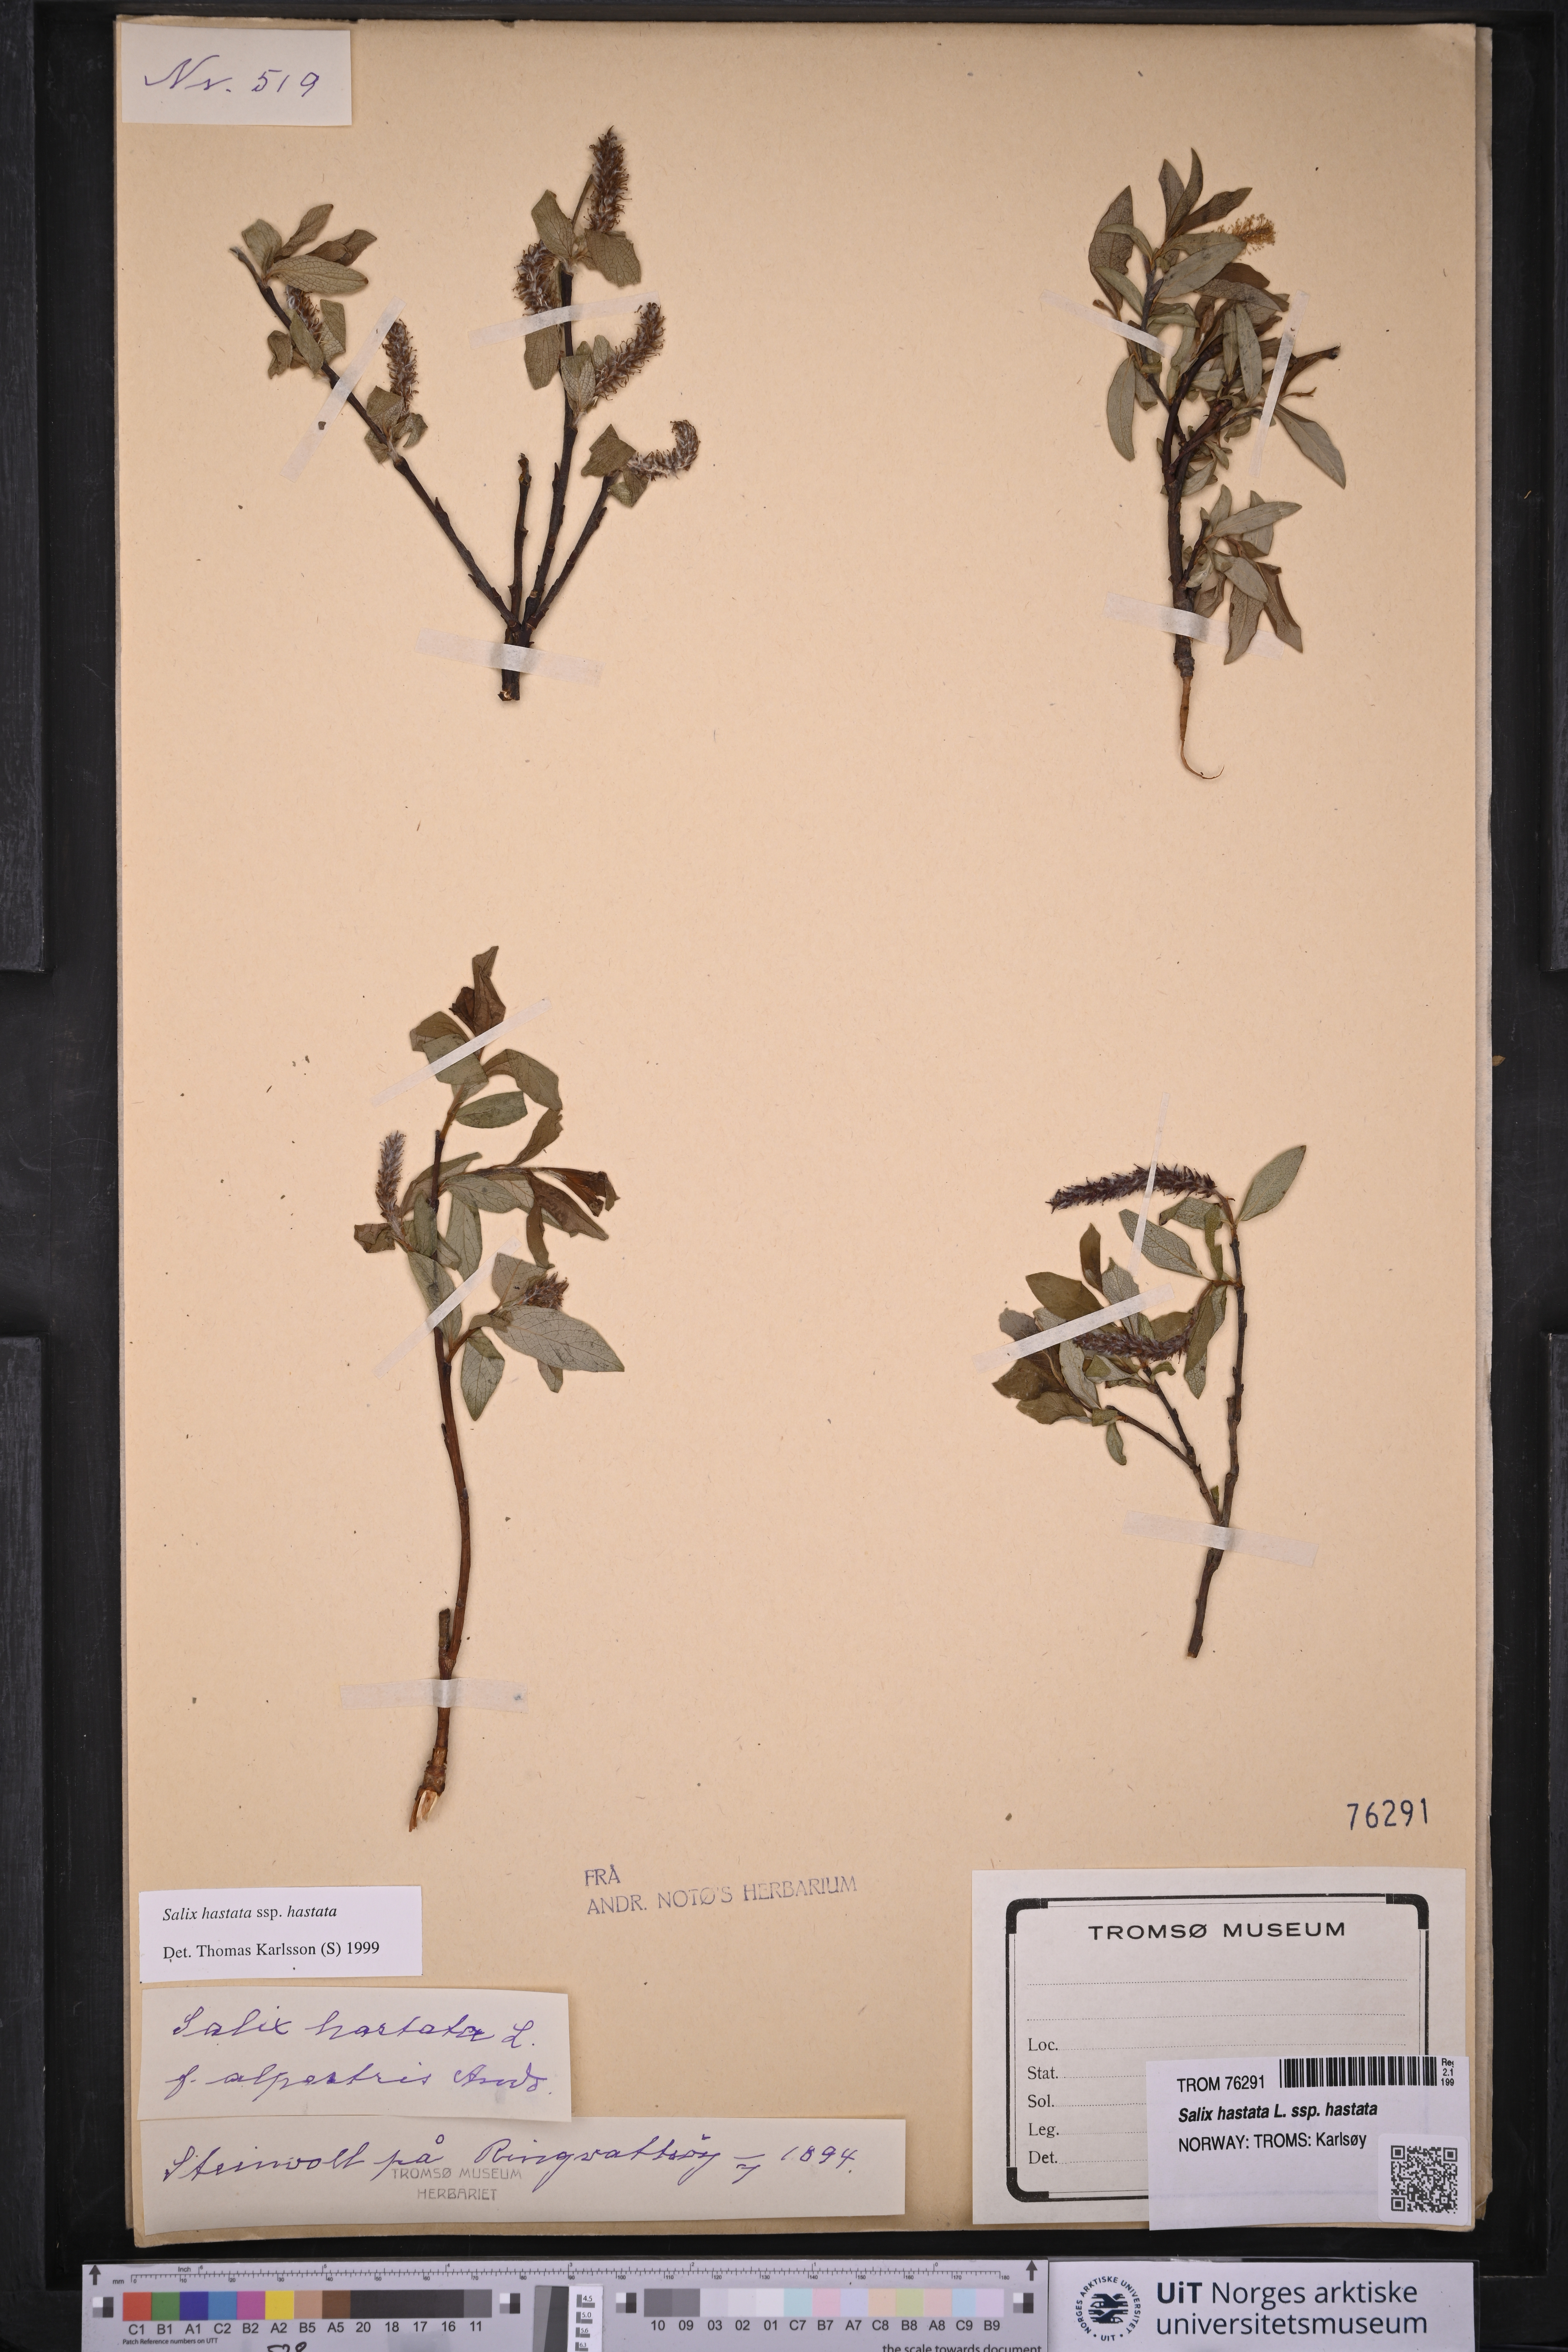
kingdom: Plantae
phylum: Tracheophyta
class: Magnoliopsida
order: Malpighiales
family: Salicaceae
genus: Salix
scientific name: Salix hastata
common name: Halberd willow
